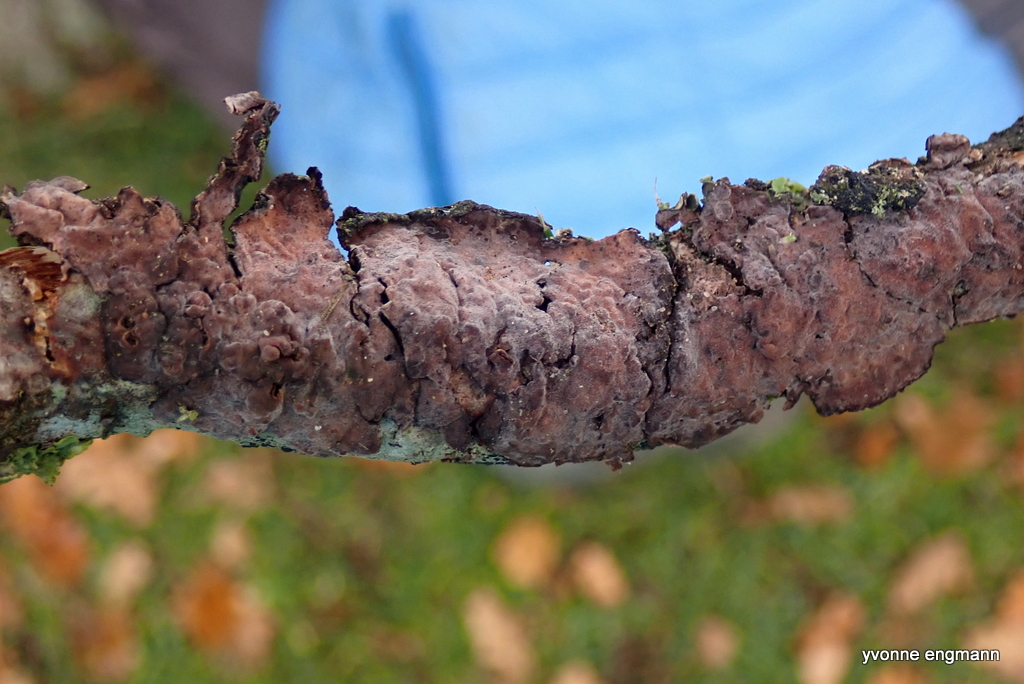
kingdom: Fungi
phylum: Basidiomycota
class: Agaricomycetes
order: Russulales
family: Peniophoraceae
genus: Peniophora
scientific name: Peniophora quercina
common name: ege-voksskind
